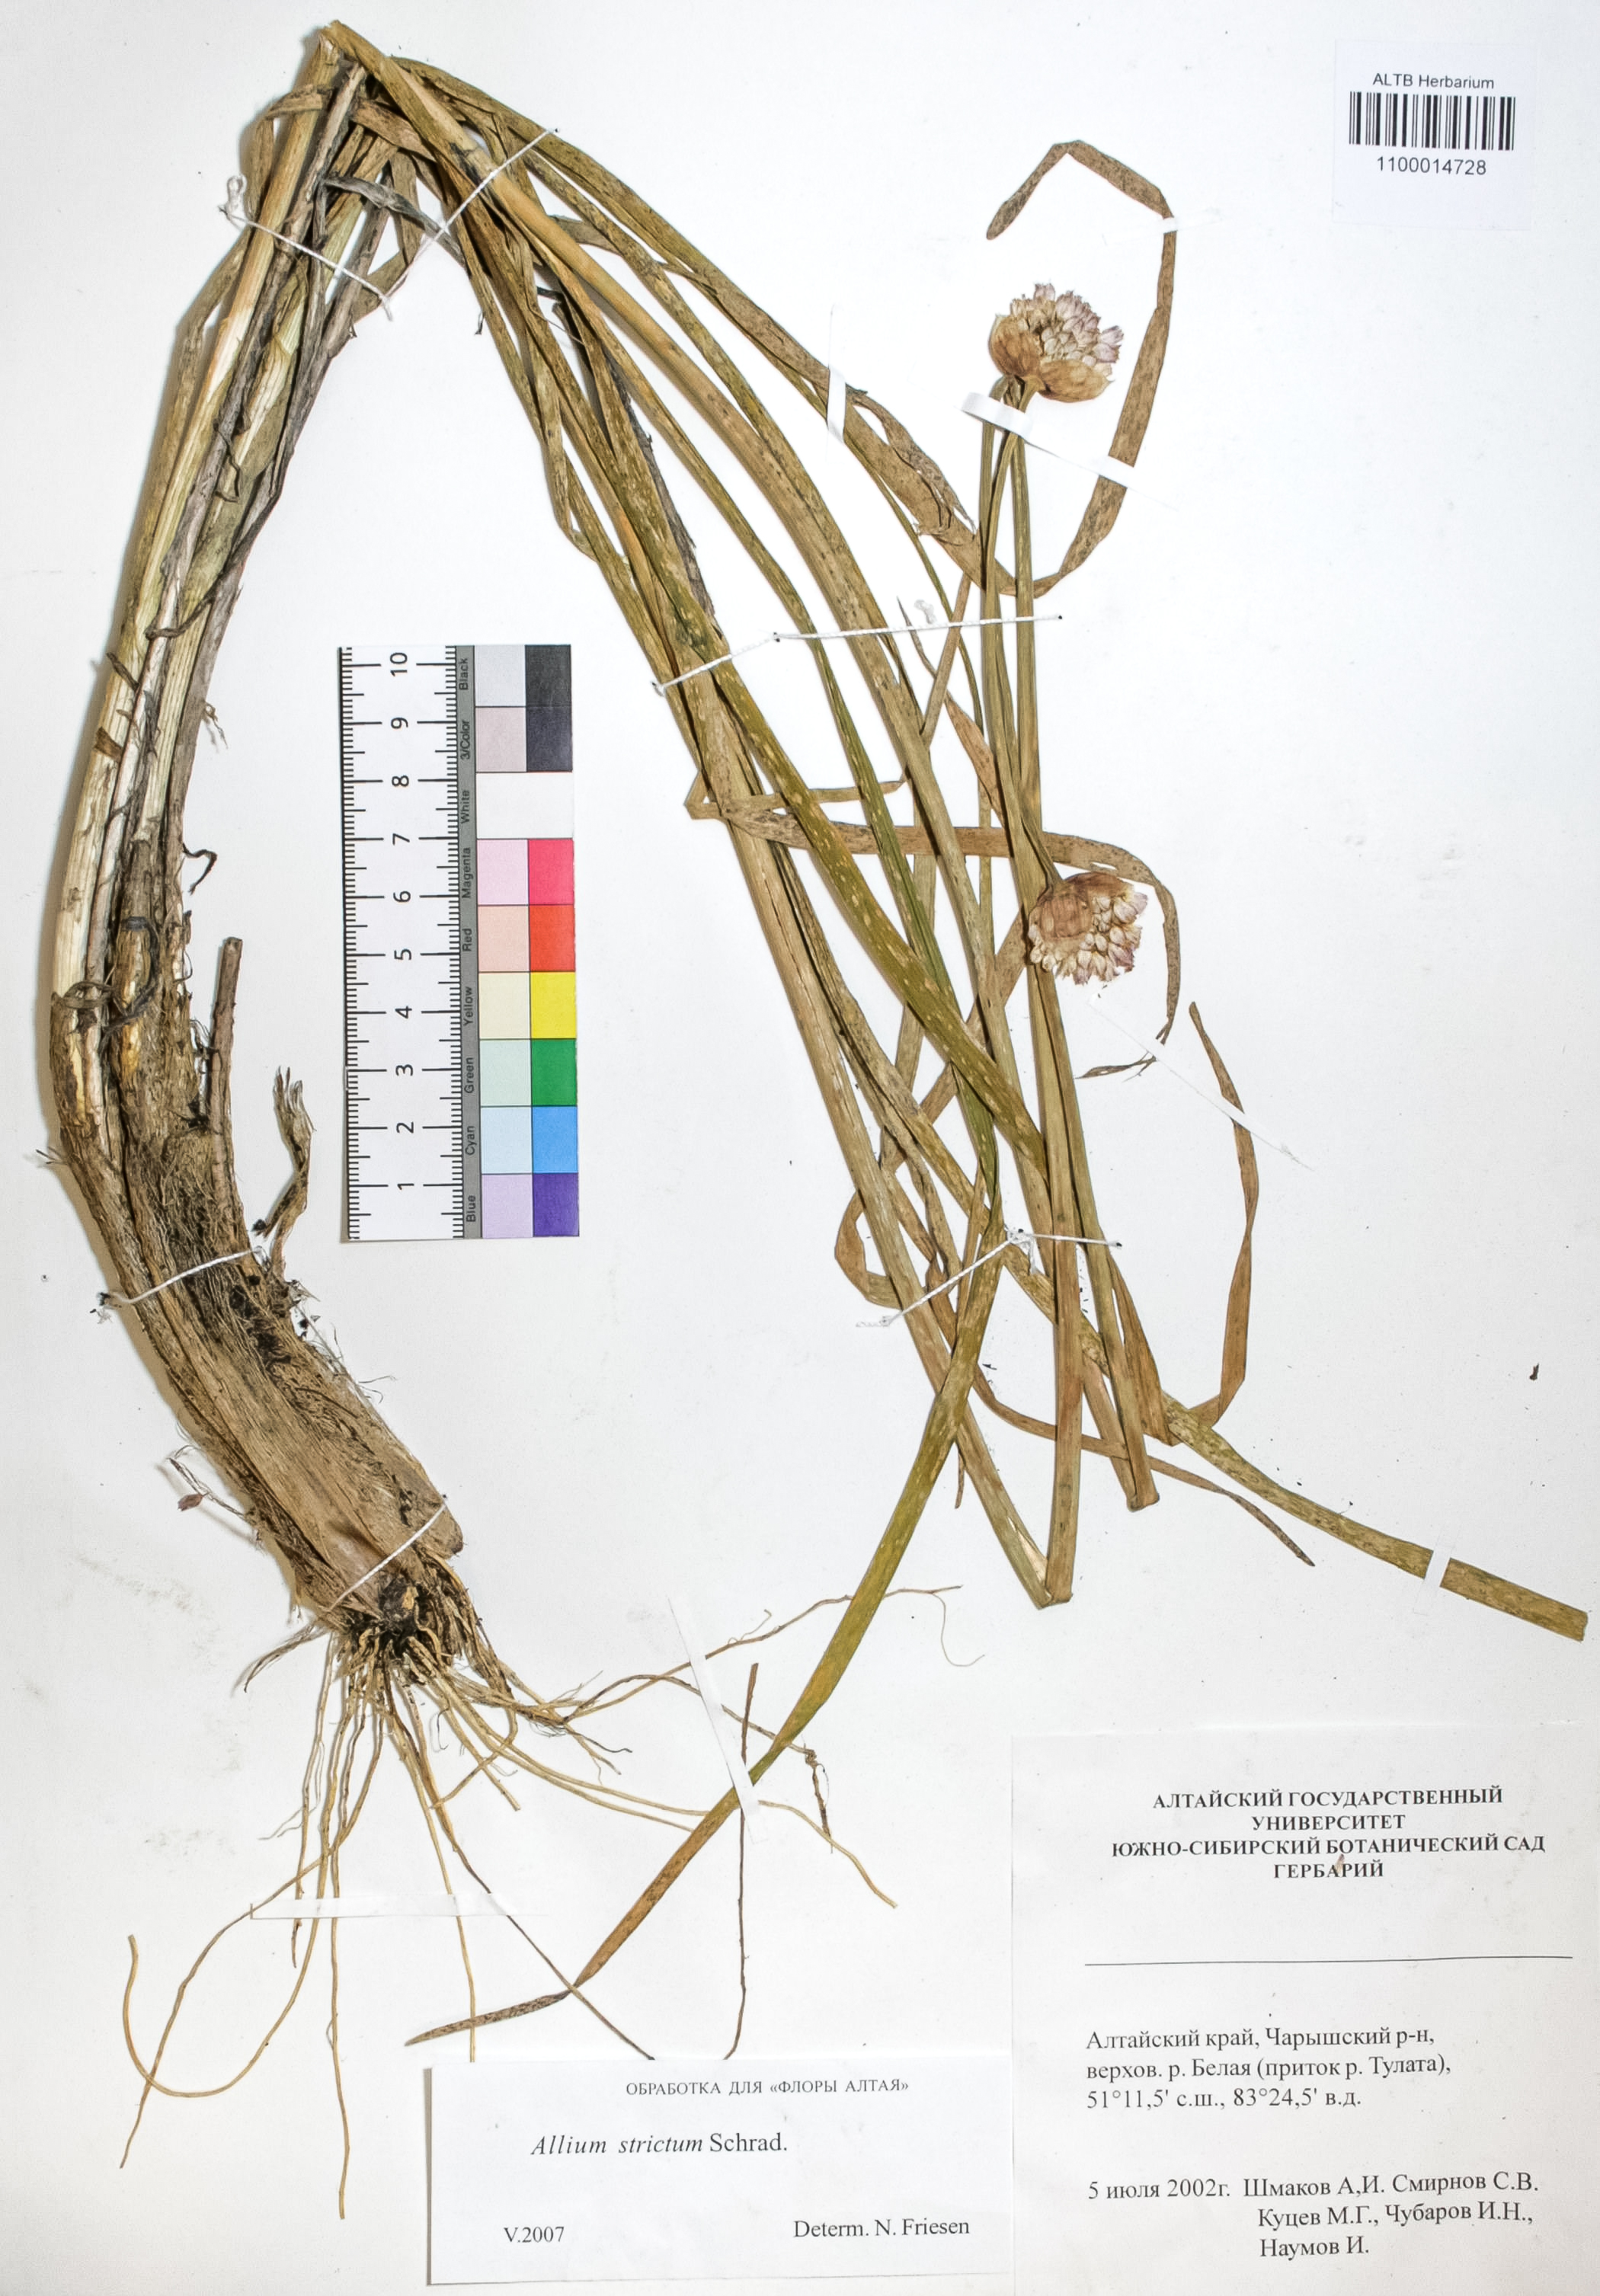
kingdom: Plantae
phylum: Tracheophyta
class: Liliopsida
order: Asparagales
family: Amaryllidaceae
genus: Allium
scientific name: Allium strictum
